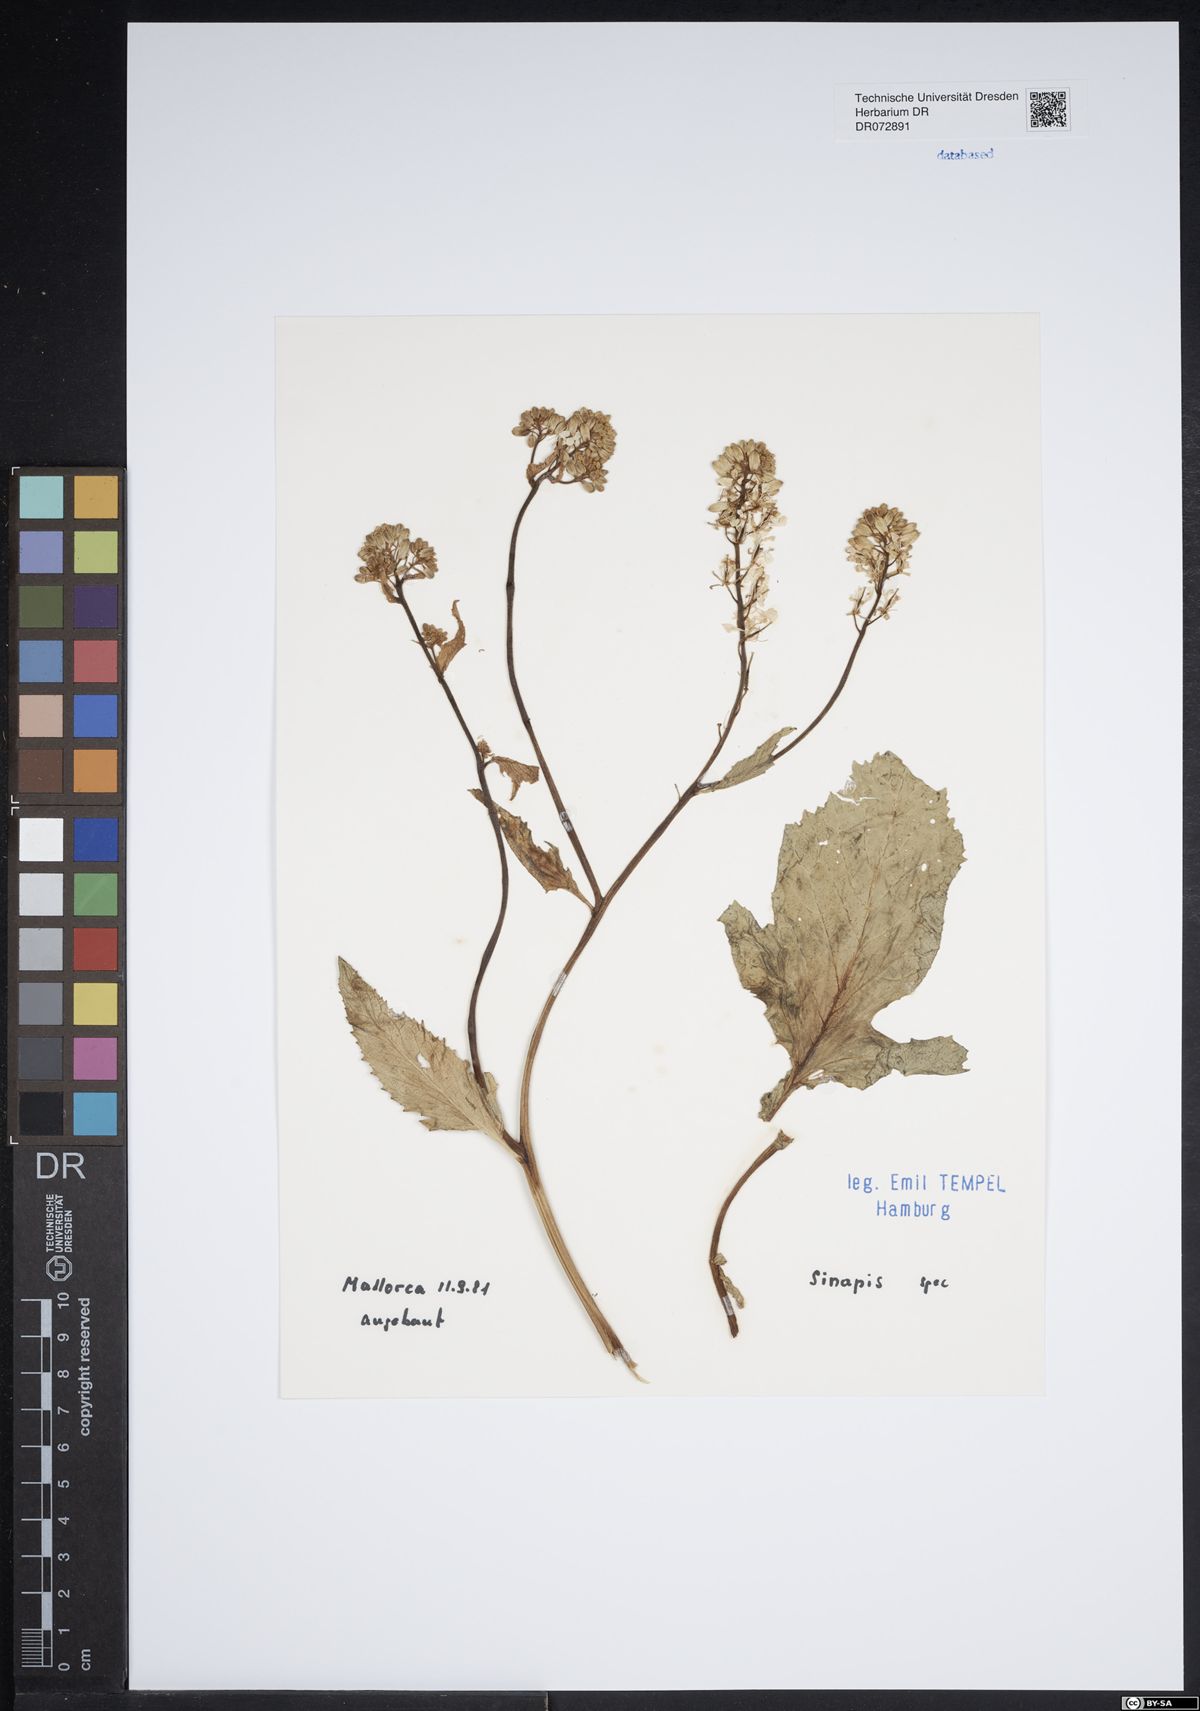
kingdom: Plantae
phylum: Tracheophyta
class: Magnoliopsida
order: Brassicales
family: Brassicaceae
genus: Sinapis
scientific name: Sinapis
